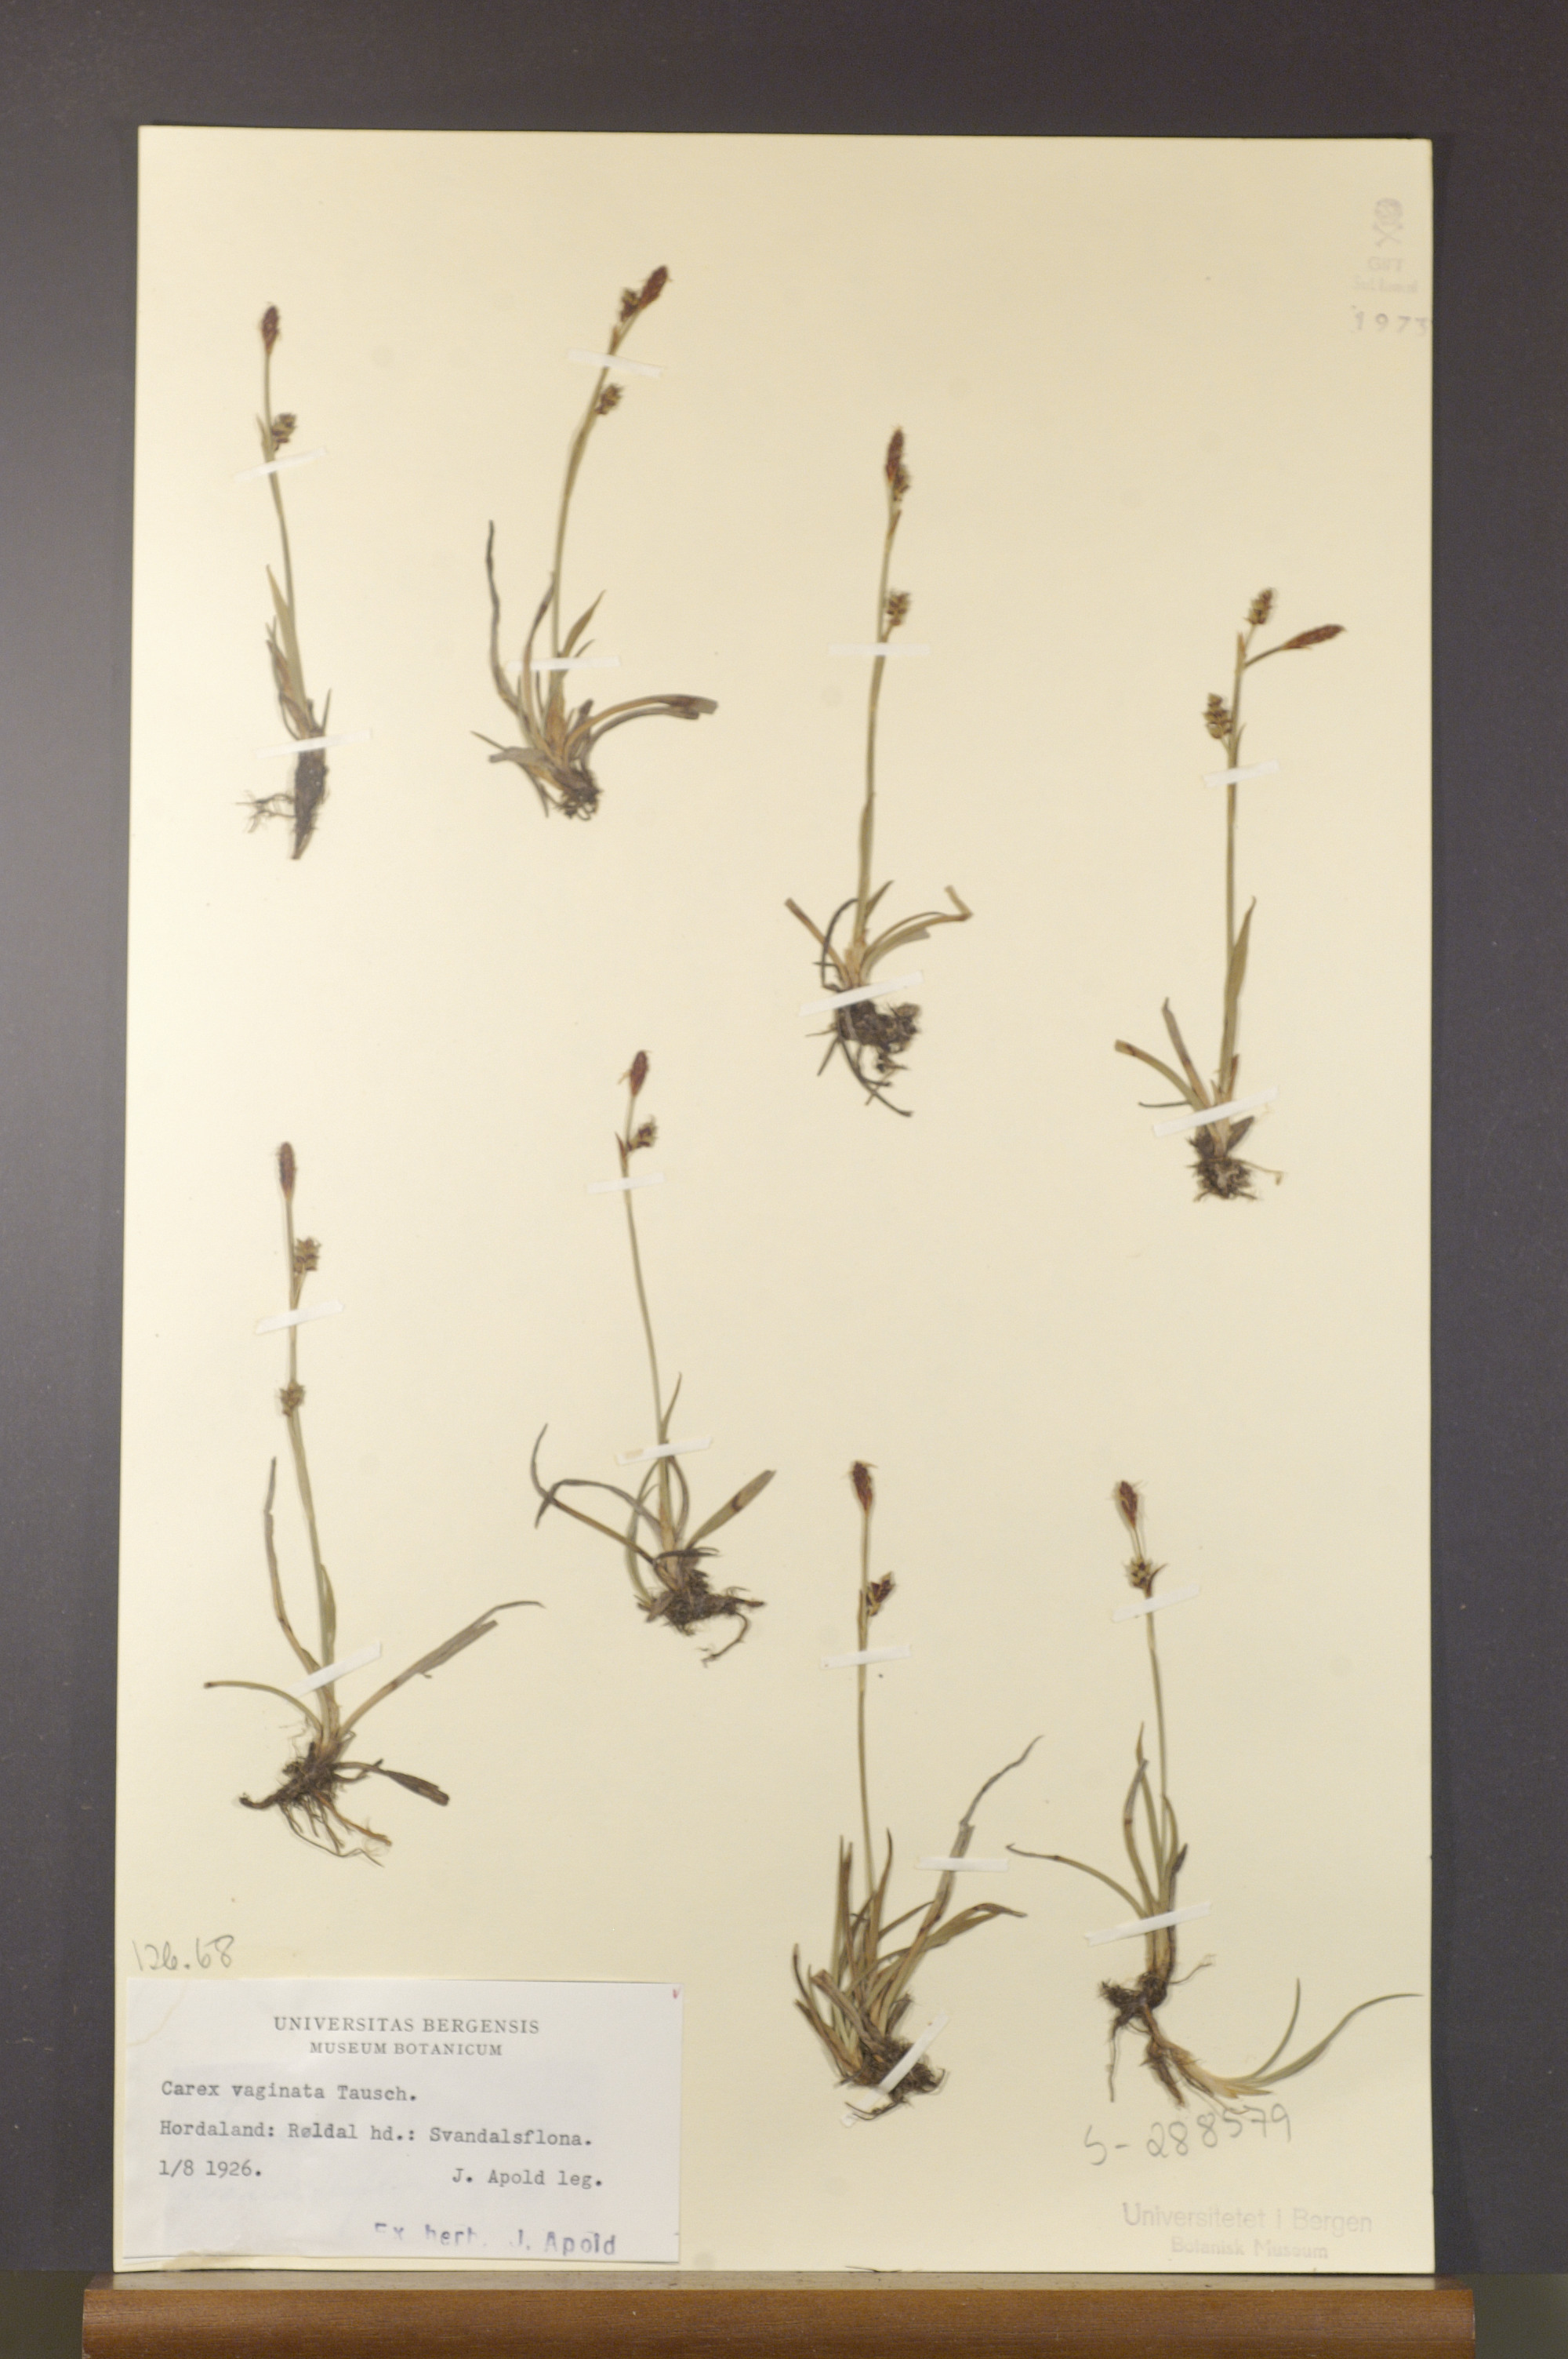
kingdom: Plantae
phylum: Tracheophyta
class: Liliopsida
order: Poales
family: Cyperaceae
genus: Carex
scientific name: Carex vaginata
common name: Sheathed sedge
